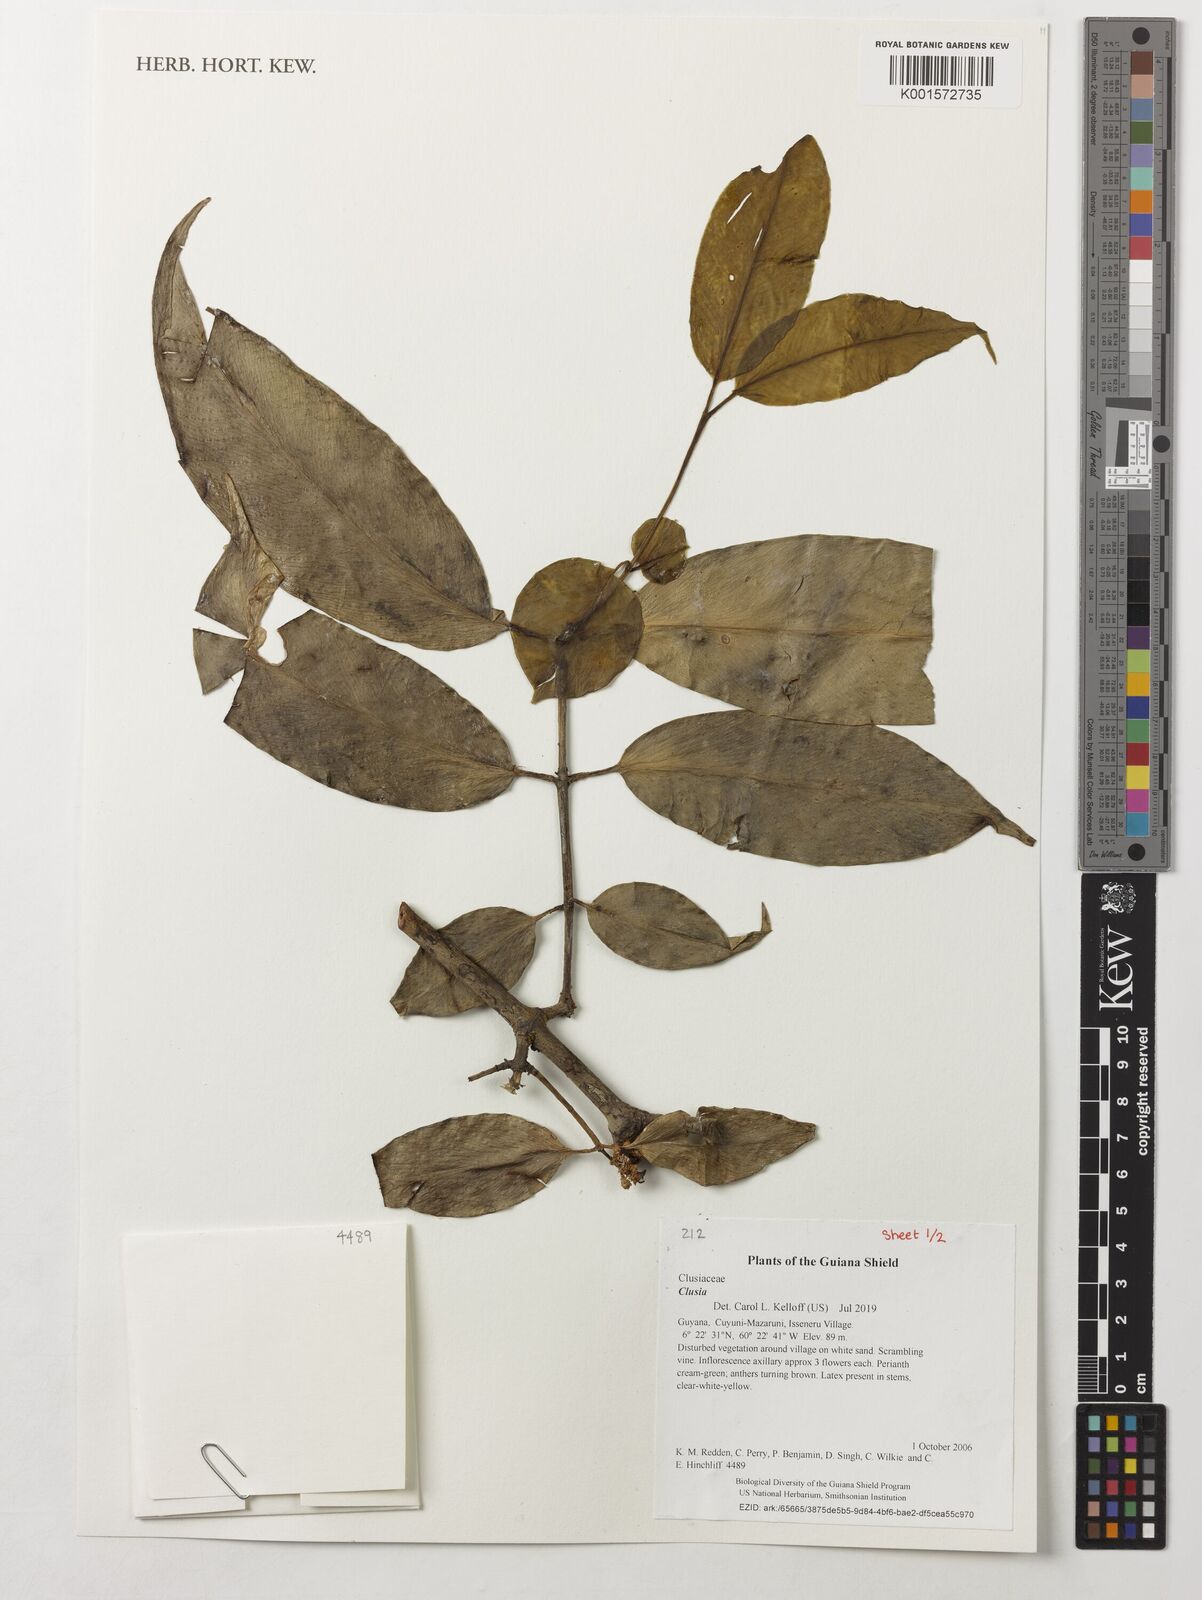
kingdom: Plantae
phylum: Tracheophyta
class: Magnoliopsida
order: Malpighiales
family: Clusiaceae
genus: Clusia
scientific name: Clusia
